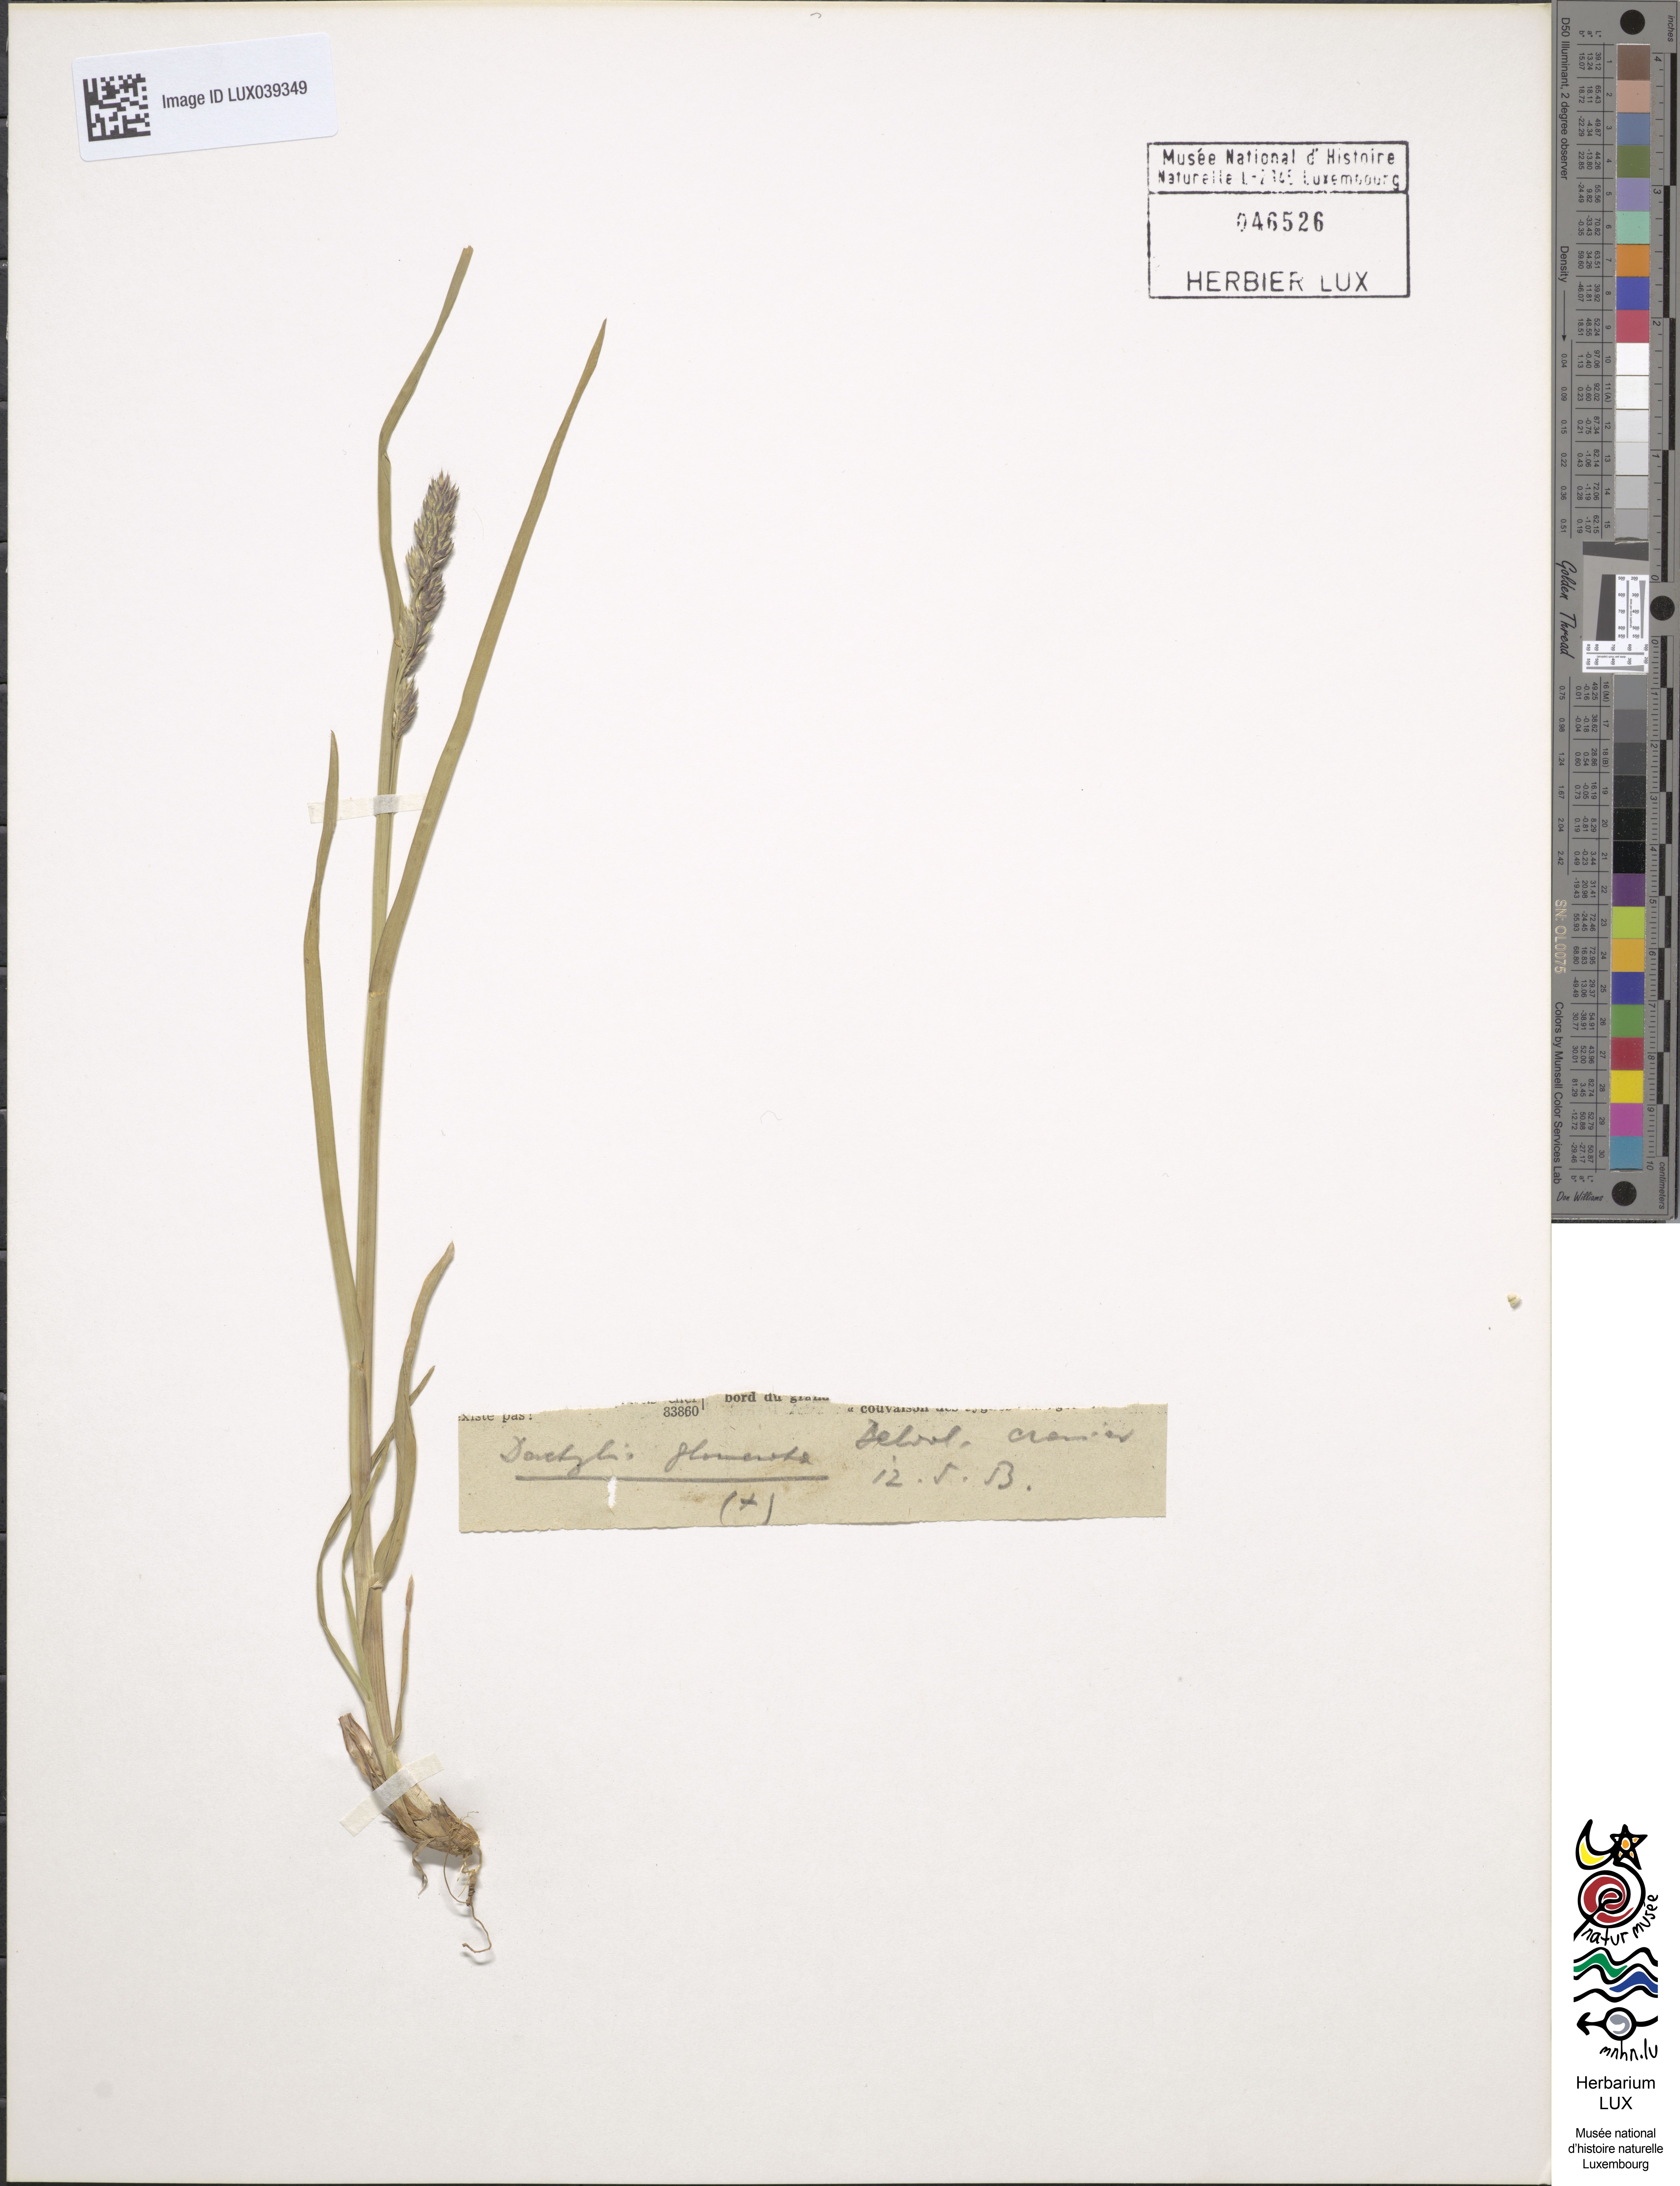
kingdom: Plantae
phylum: Tracheophyta
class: Liliopsida
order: Poales
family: Poaceae
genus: Dactylis
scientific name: Dactylis glomerata
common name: Orchardgrass
